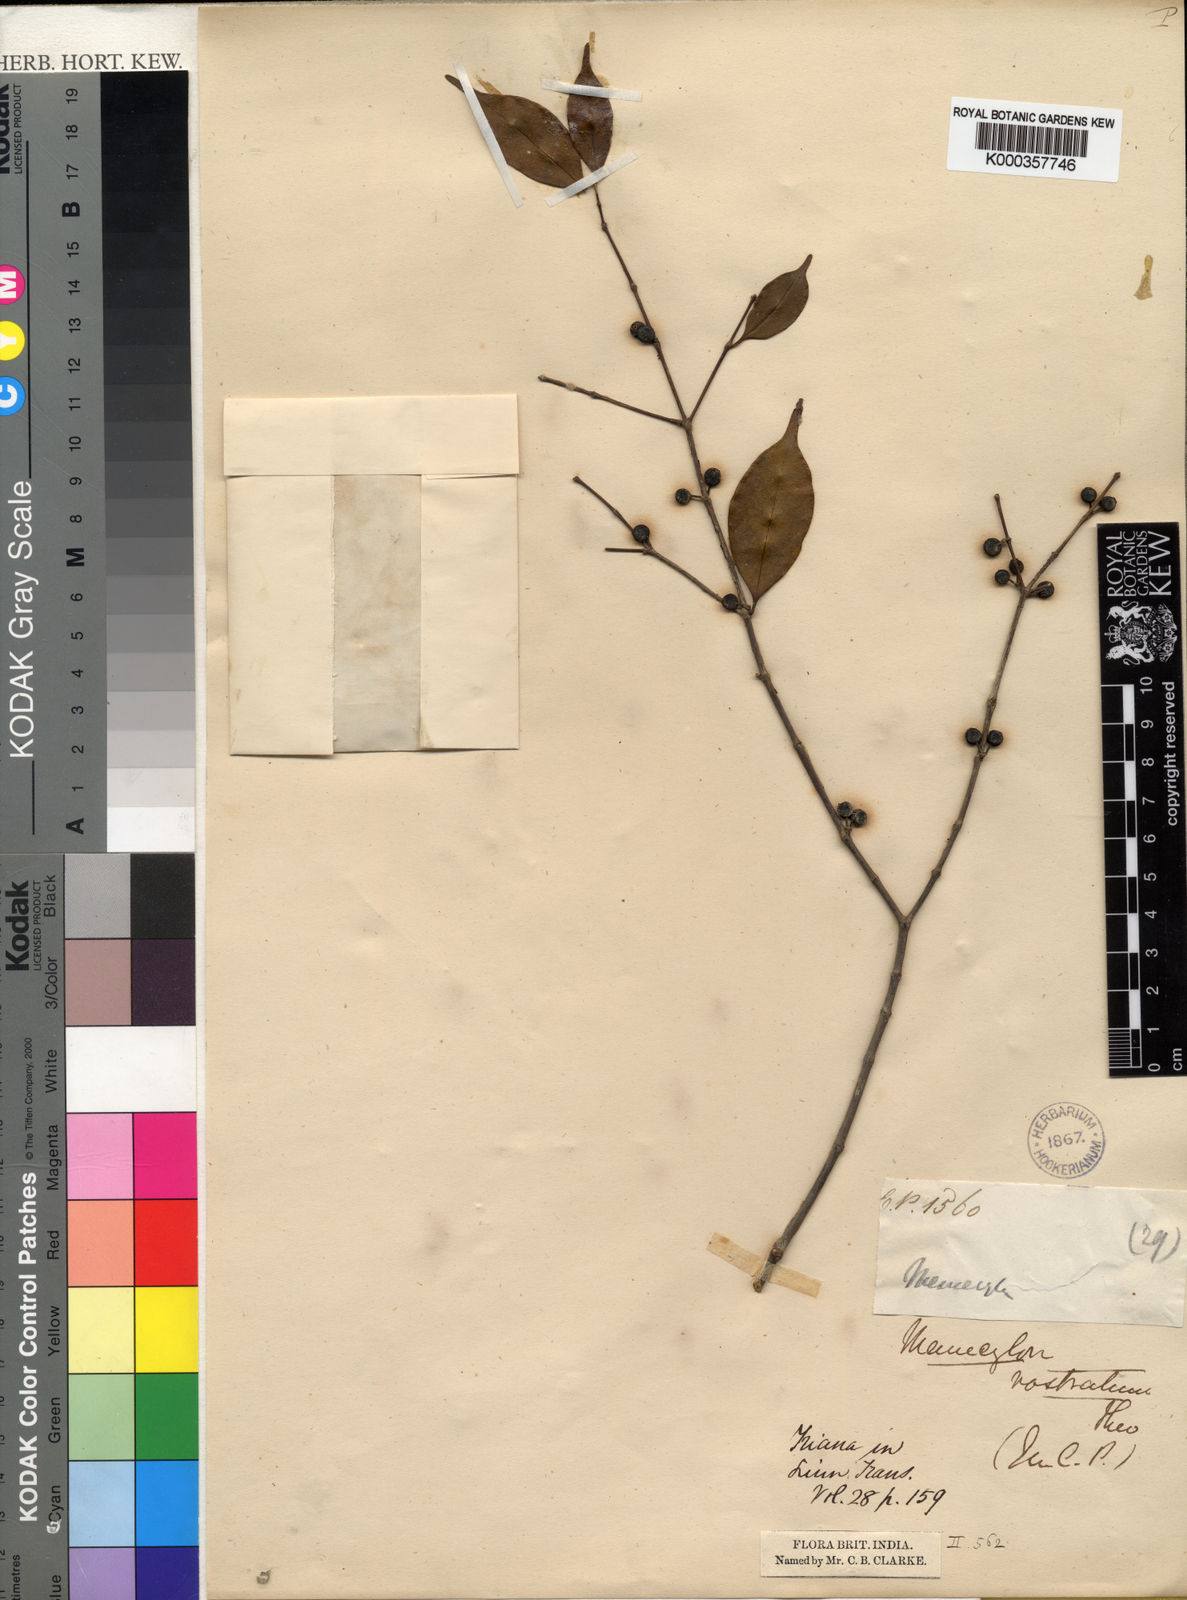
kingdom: Plantae
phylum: Tracheophyta
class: Magnoliopsida
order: Myrtales
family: Melastomataceae
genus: Memecylon
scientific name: Memecylon rostratum
